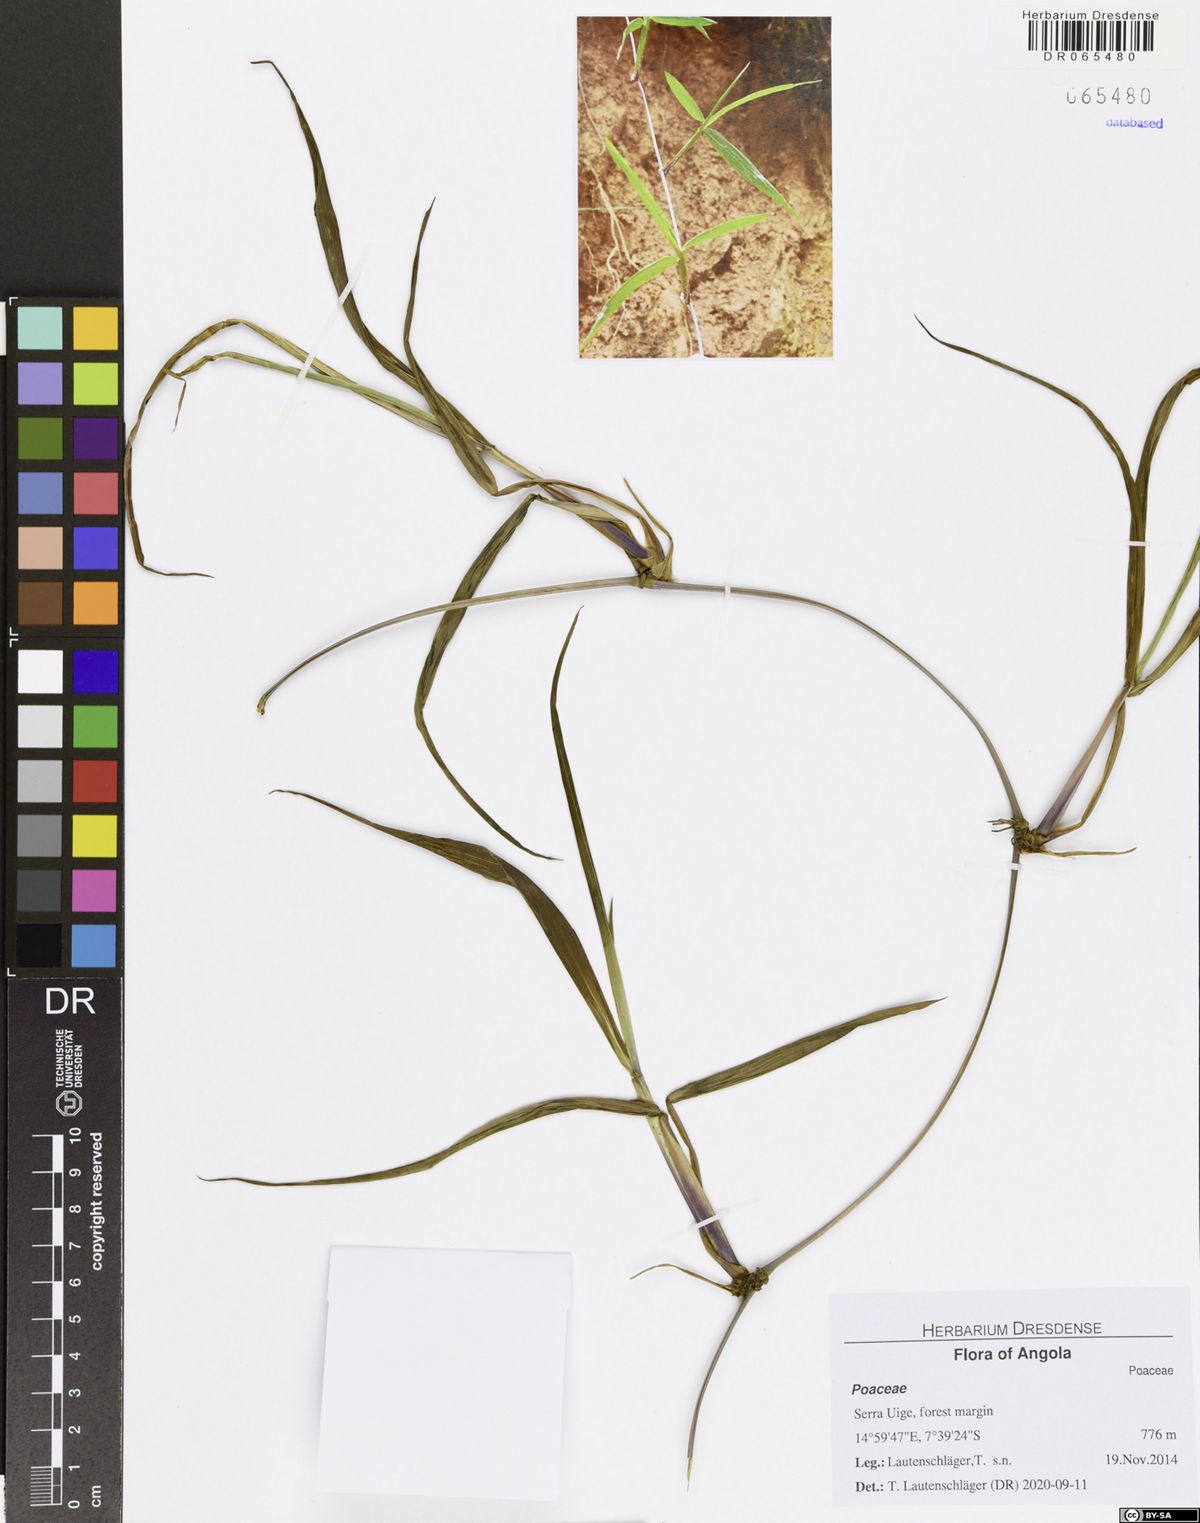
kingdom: Plantae
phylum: Tracheophyta
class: Liliopsida
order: Poales
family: Poaceae
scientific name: Poaceae
